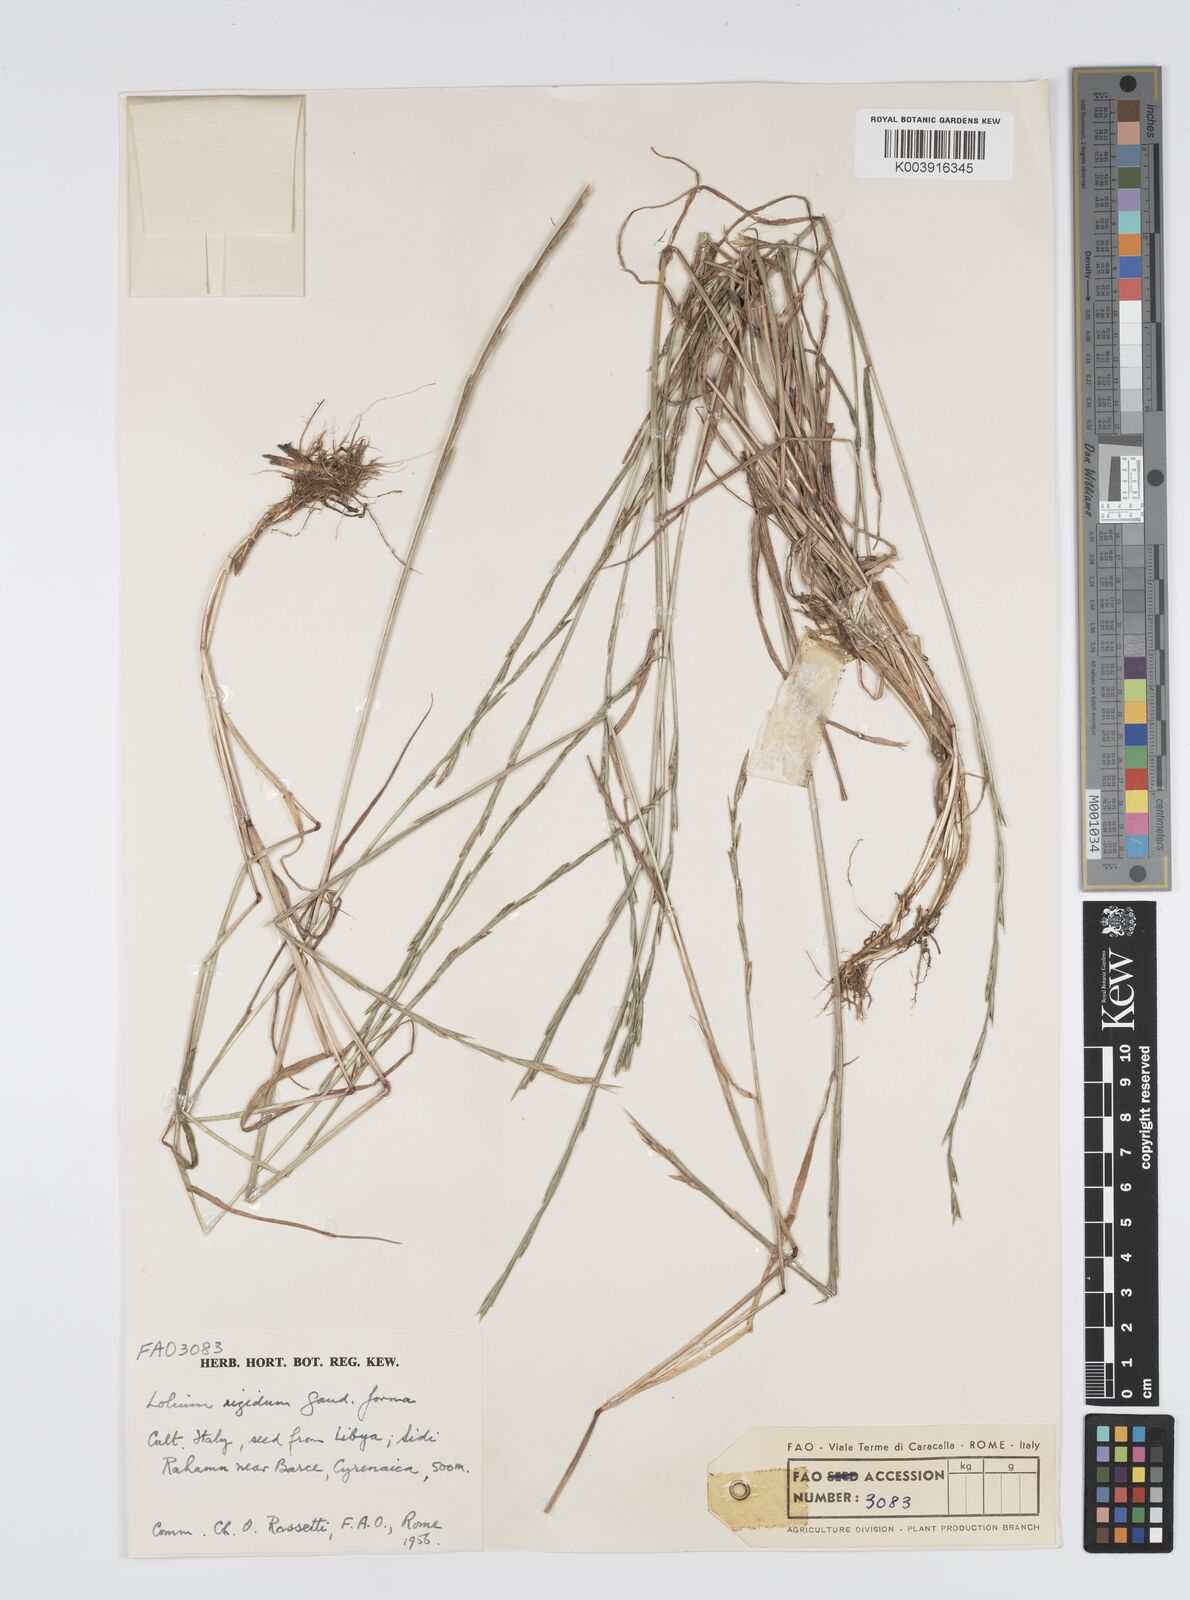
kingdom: Plantae
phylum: Tracheophyta
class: Liliopsida
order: Poales
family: Poaceae
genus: Lolium
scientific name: Lolium rigidum
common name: Wimmera ryegrass
